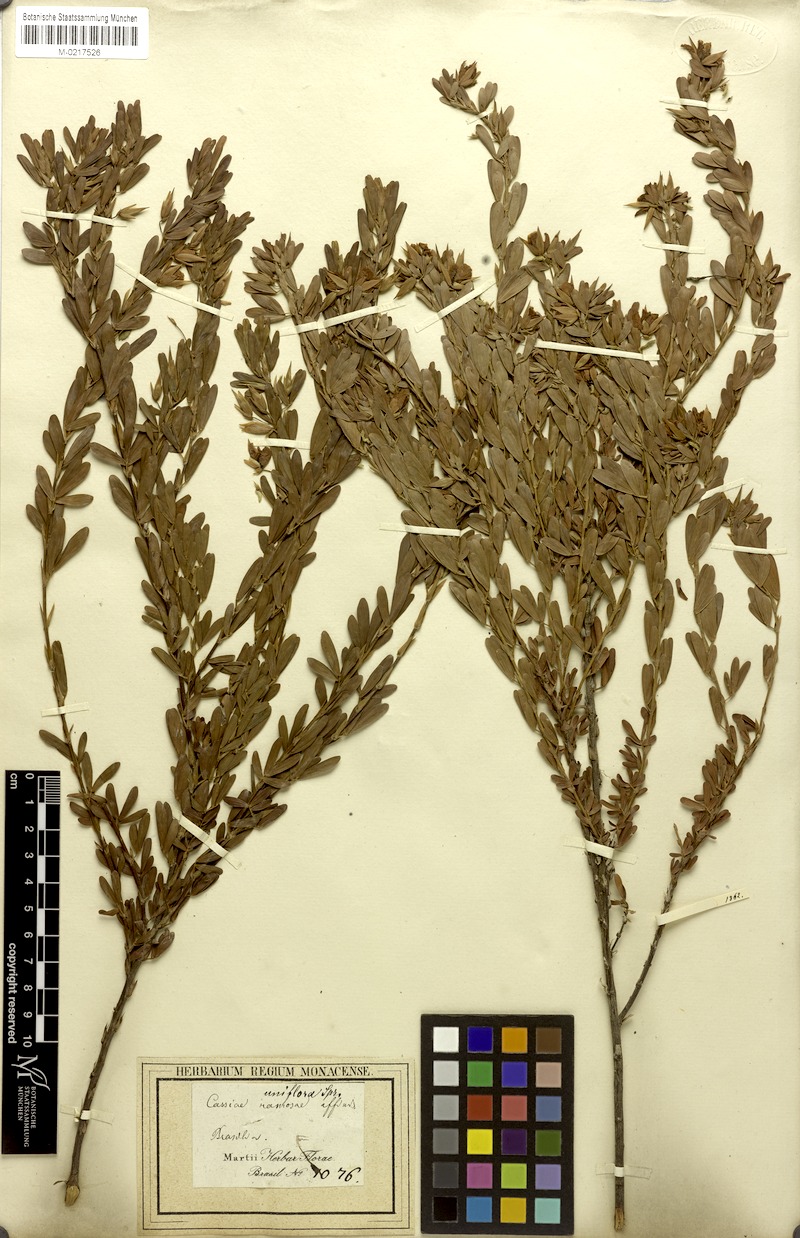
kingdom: Plantae
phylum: Tracheophyta
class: Magnoliopsida
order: Fabales
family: Fabaceae
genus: Chamaecrista
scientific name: Chamaecrista langsdorffii
